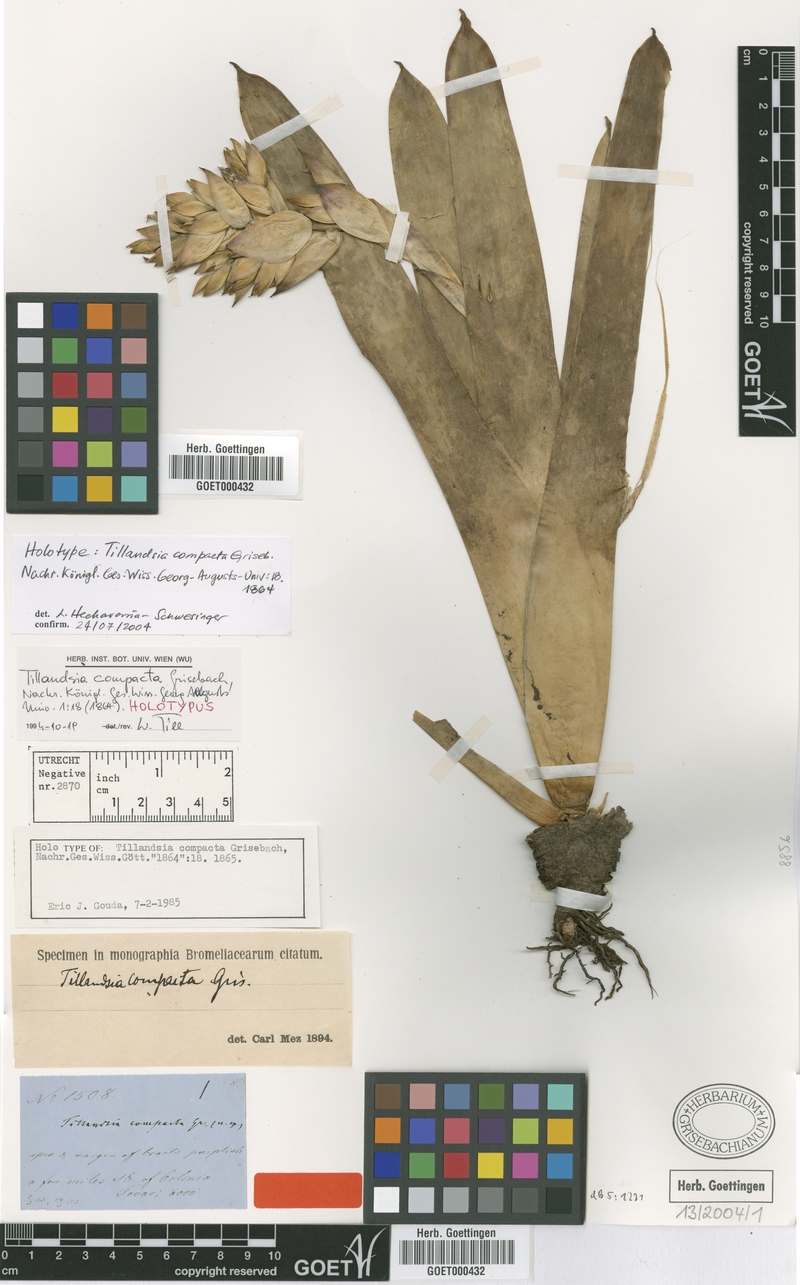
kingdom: Plantae
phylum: Tracheophyta
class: Liliopsida
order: Poales
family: Bromeliaceae
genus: Tillandsia
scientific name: Tillandsia compacta
